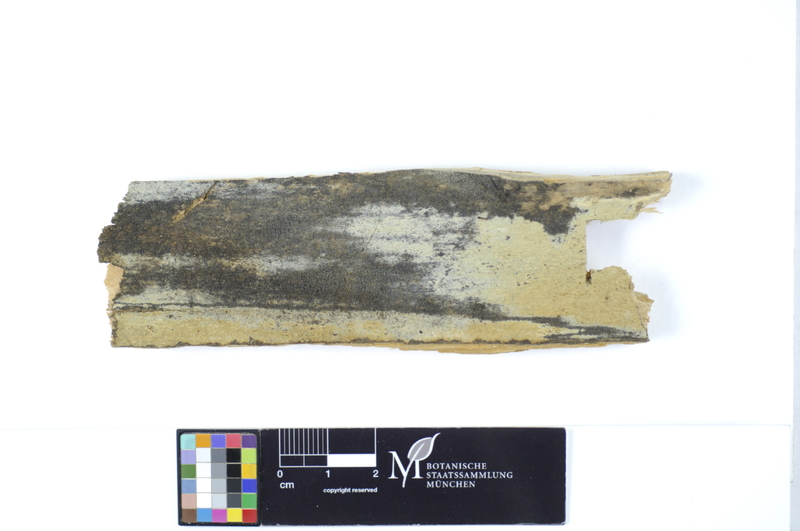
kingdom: Fungi
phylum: Basidiomycota
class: Agaricomycetes
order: Hymenochaetales
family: Rickenellaceae
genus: Peniophorella
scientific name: Peniophorella pubera
